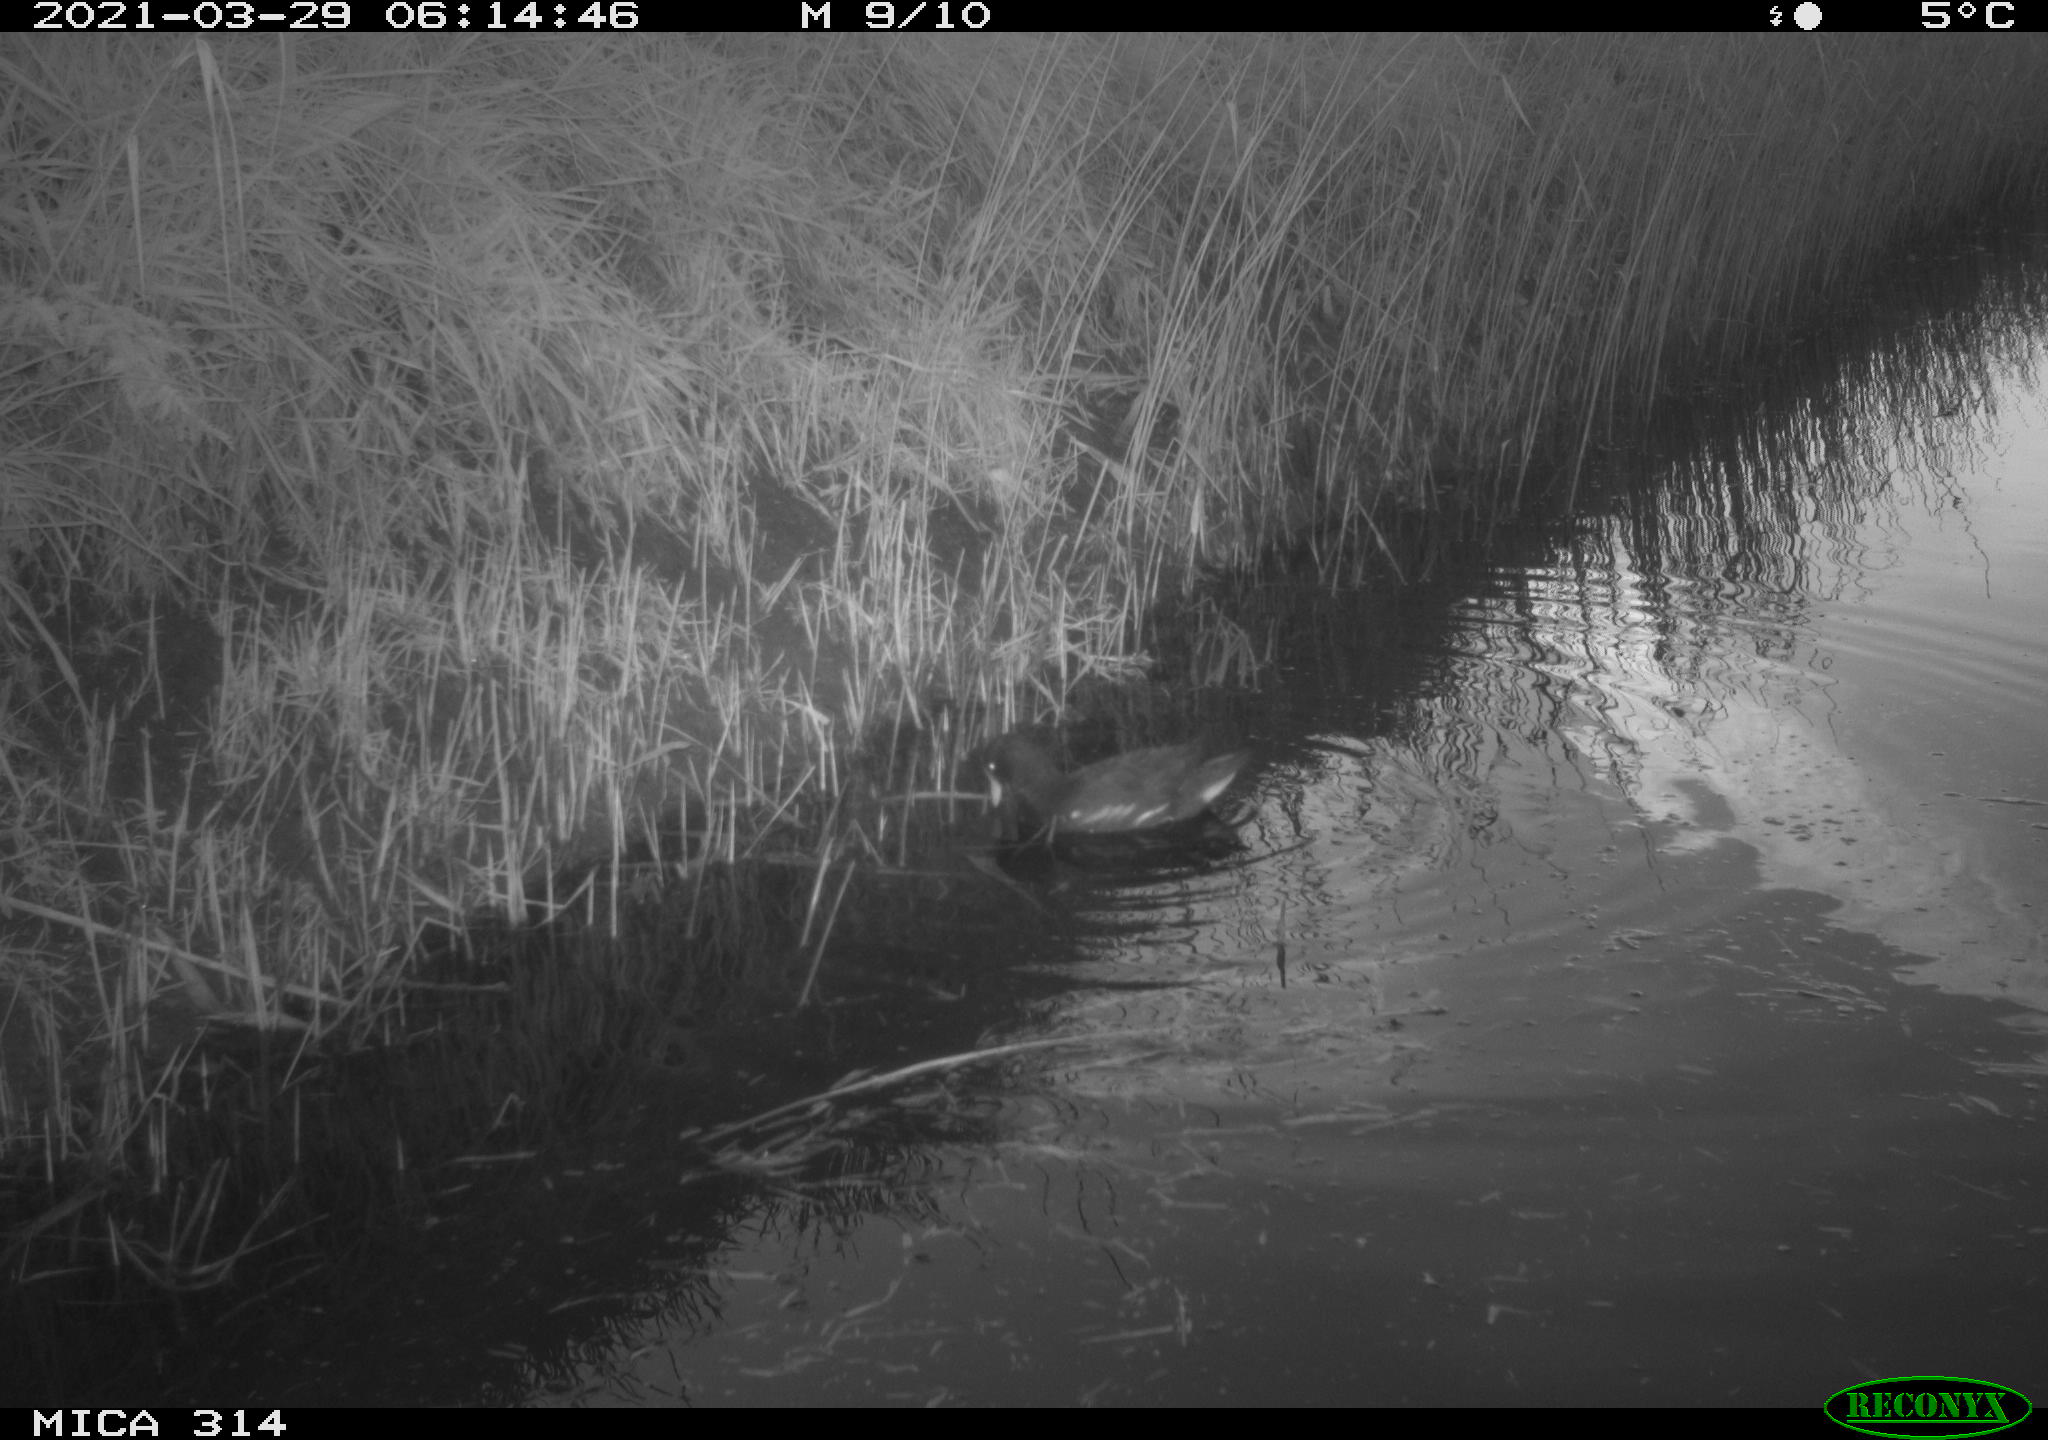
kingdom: Animalia
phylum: Chordata
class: Aves
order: Gruiformes
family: Rallidae
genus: Gallinula
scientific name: Gallinula chloropus
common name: Common moorhen
